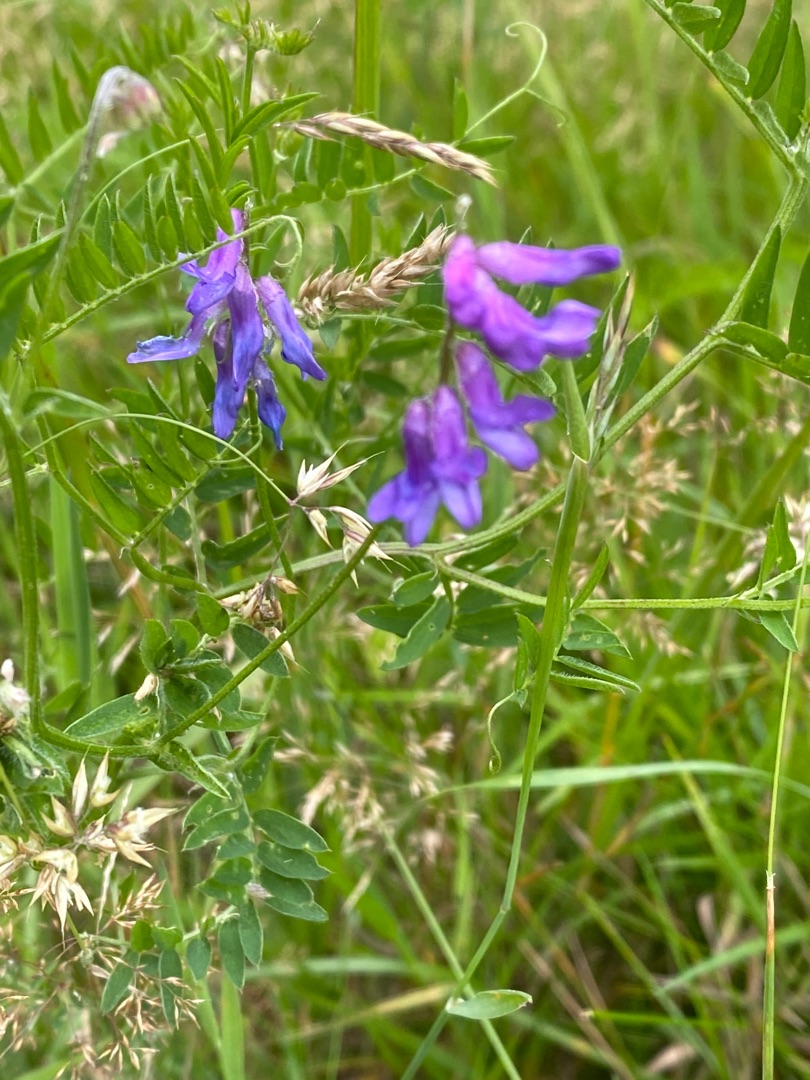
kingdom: Plantae
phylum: Tracheophyta
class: Magnoliopsida
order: Fabales
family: Fabaceae
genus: Vicia
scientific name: Vicia cracca
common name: Muse-vikke
